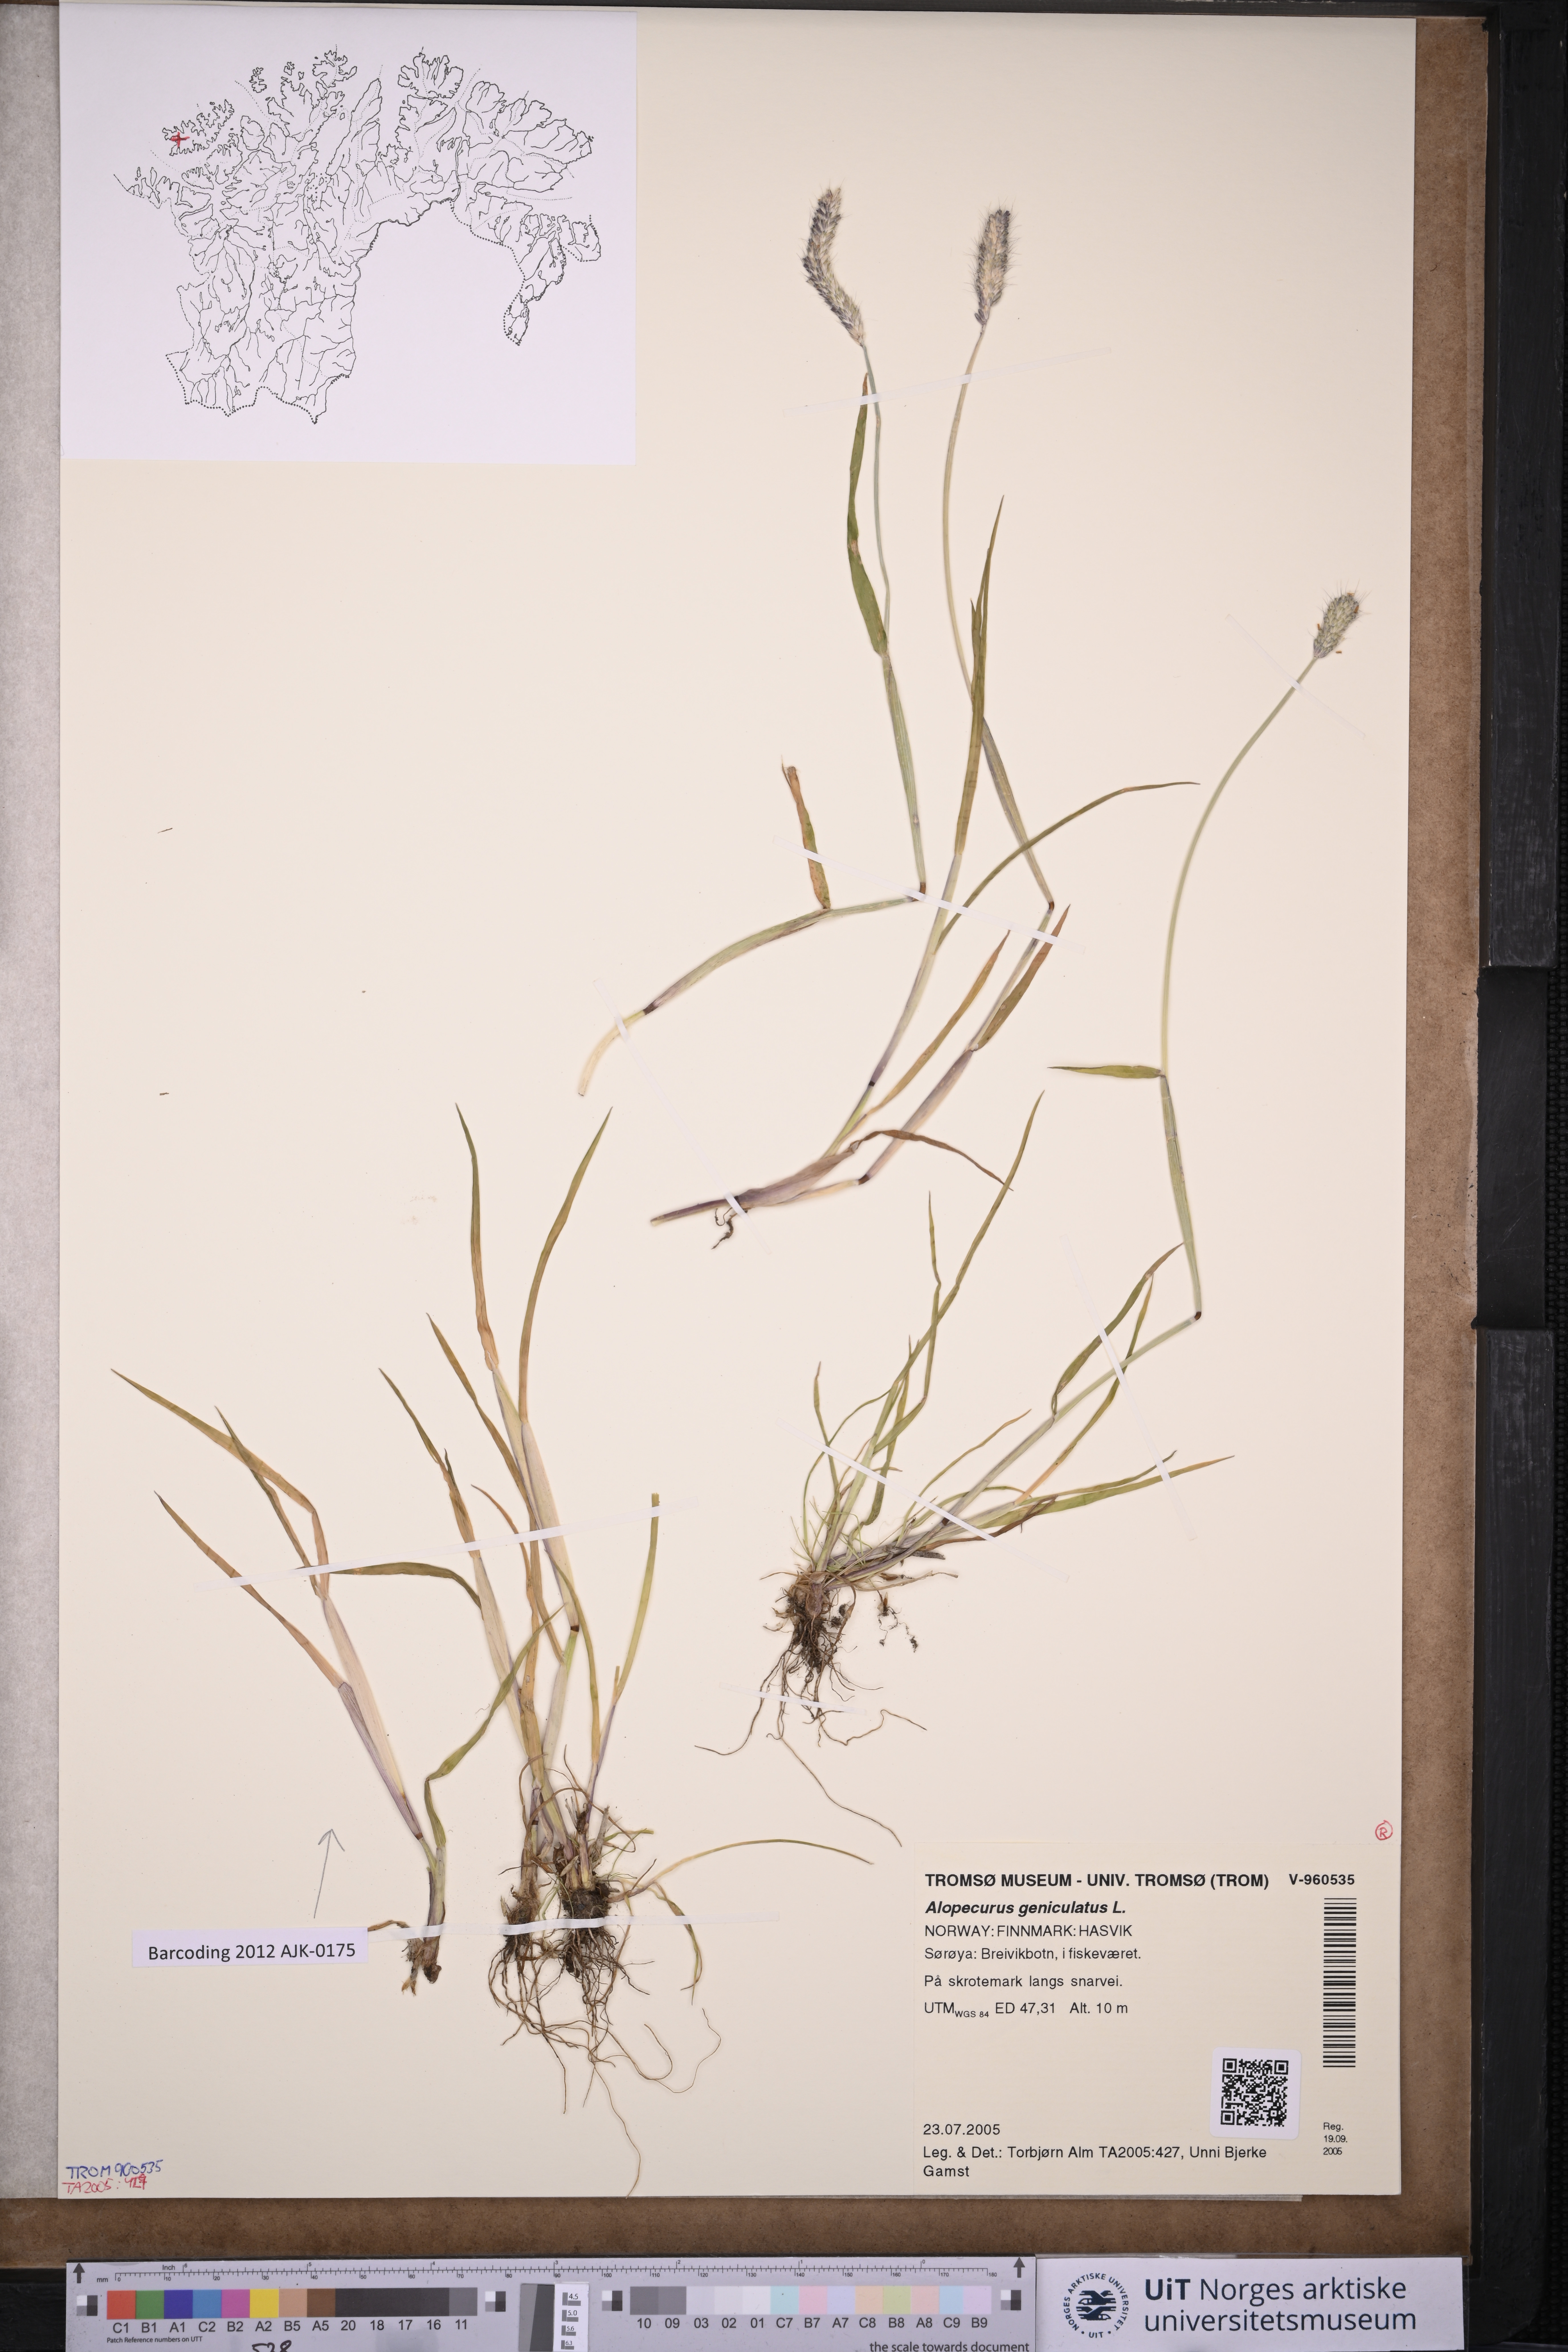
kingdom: Plantae
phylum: Tracheophyta
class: Liliopsida
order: Poales
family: Poaceae
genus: Alopecurus
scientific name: Alopecurus geniculatus
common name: Water foxtail
